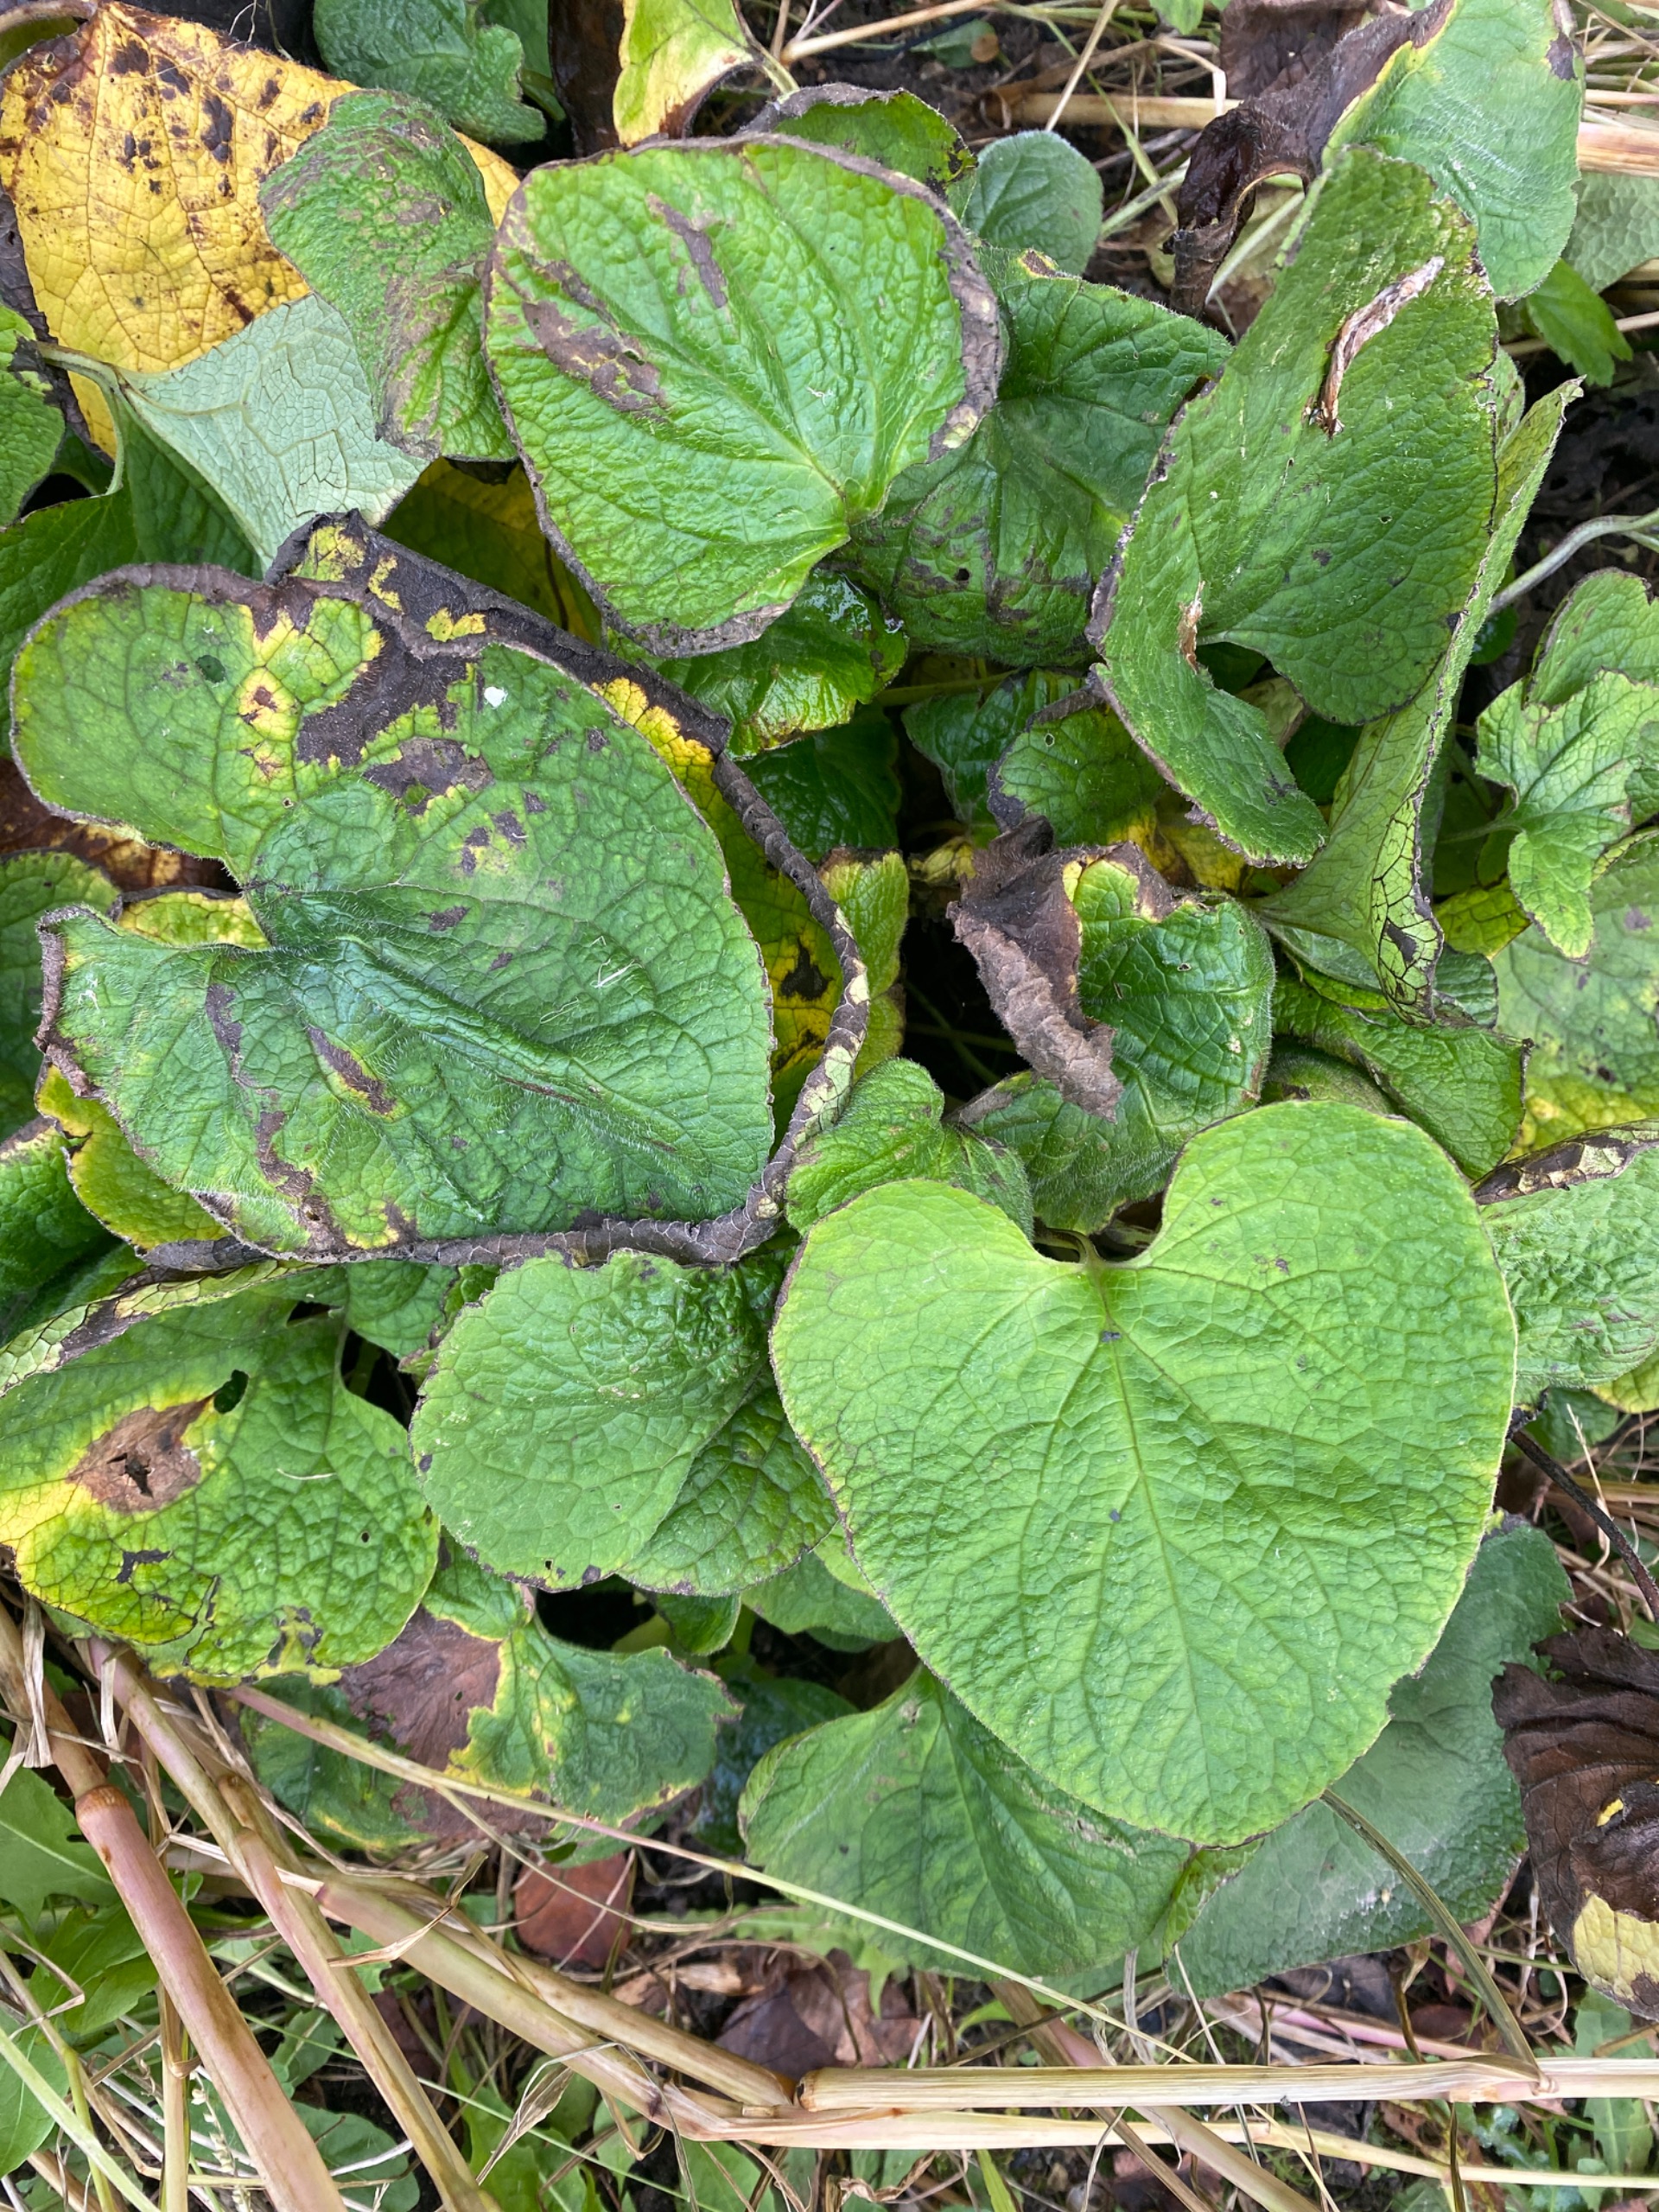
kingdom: Plantae
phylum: Tracheophyta
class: Magnoliopsida
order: Boraginales
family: Boraginaceae
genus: Brunnera
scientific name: Brunnera macrophylla
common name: Kærmindesøster
